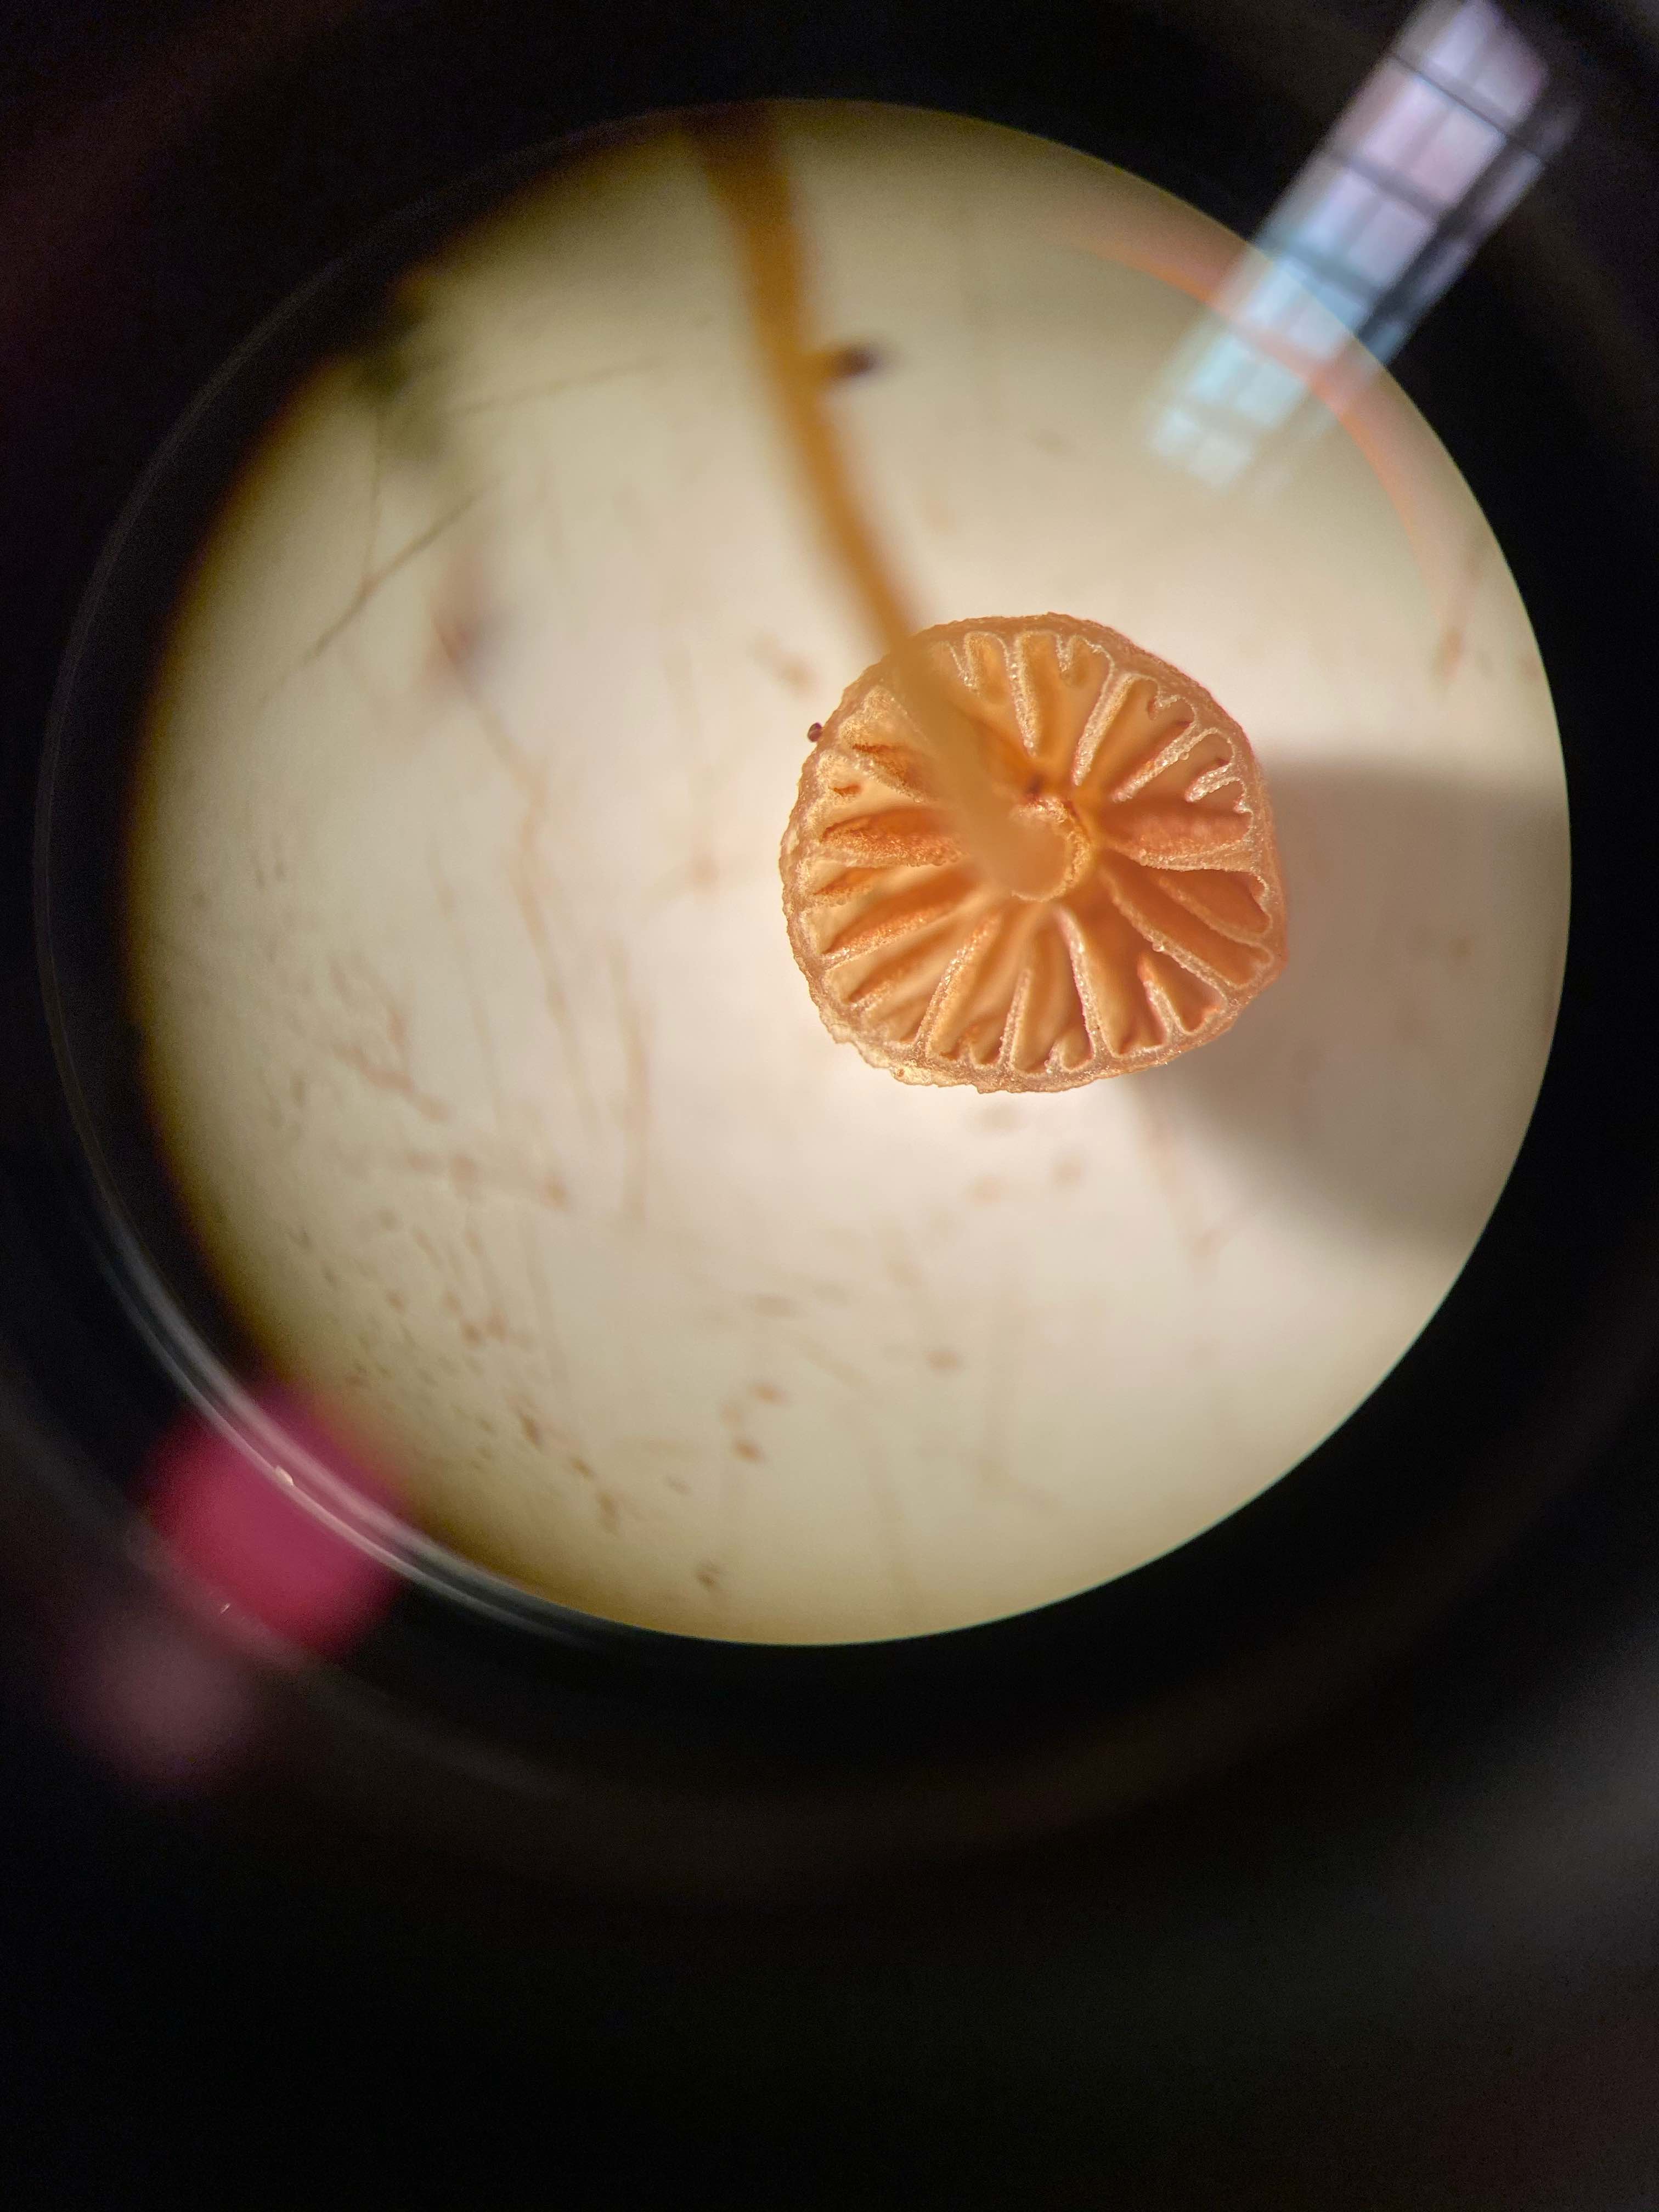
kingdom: Fungi
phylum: Basidiomycota
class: Agaricomycetes
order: Agaricales
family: Hymenogastraceae
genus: Galerina
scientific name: Galerina hypnorum
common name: mos-hjelmhat
